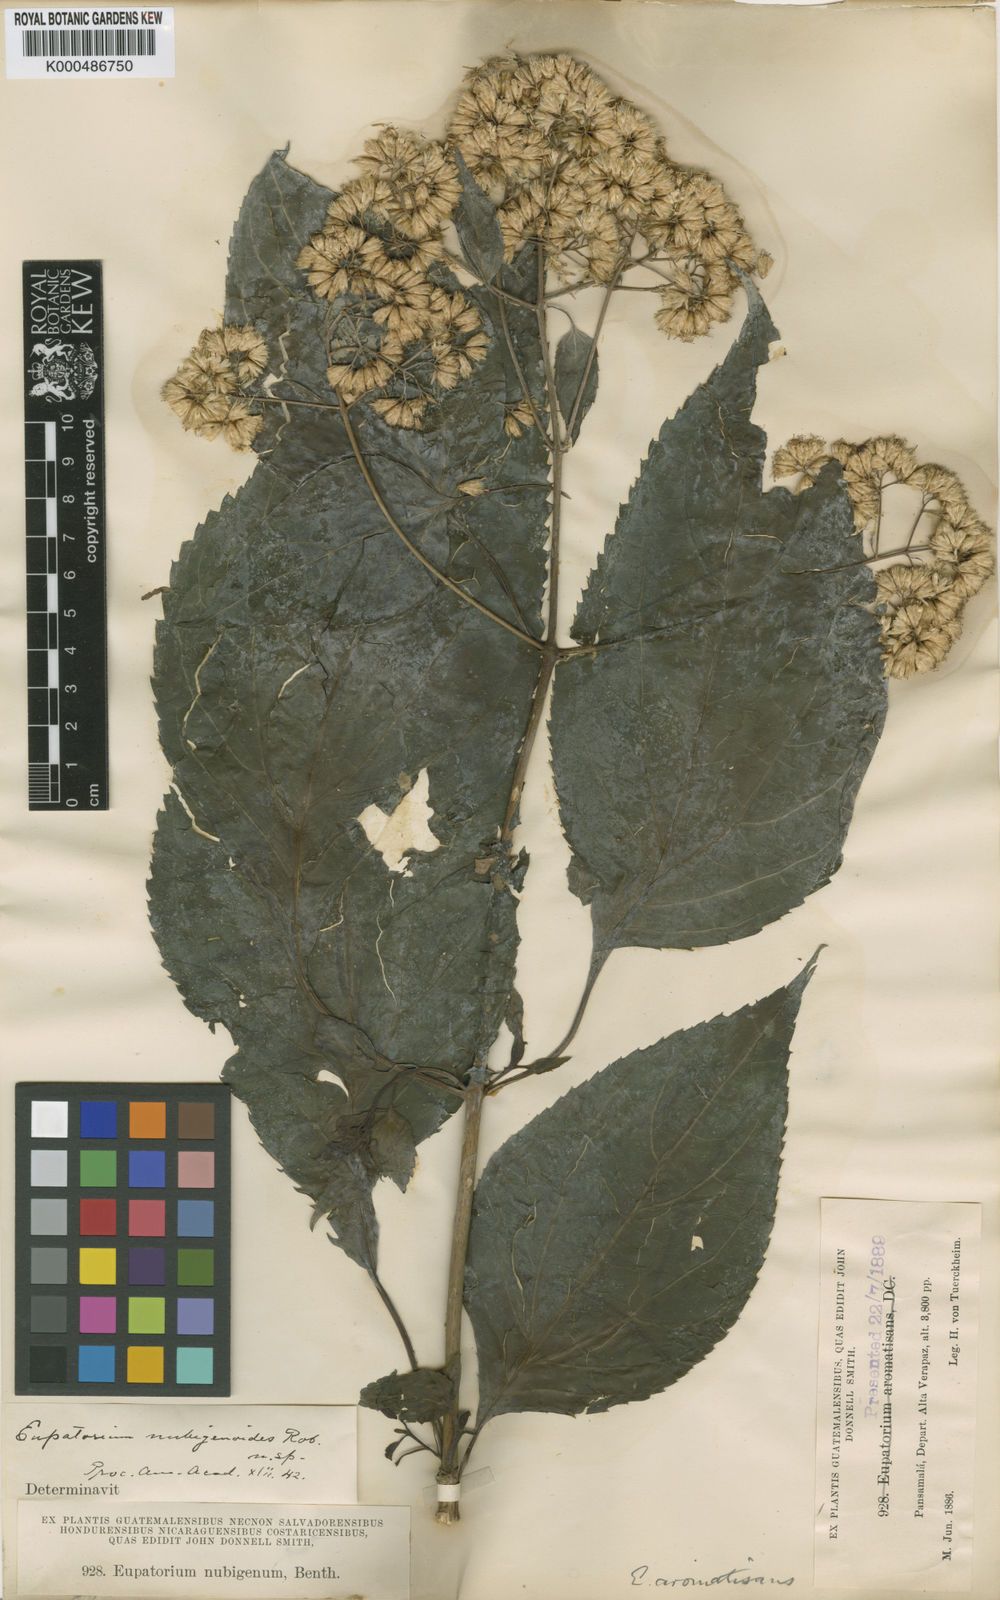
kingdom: Plantae
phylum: Tracheophyta
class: Magnoliopsida
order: Asterales
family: Asteraceae
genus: Fleischmanniopsis
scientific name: Fleischmanniopsis
